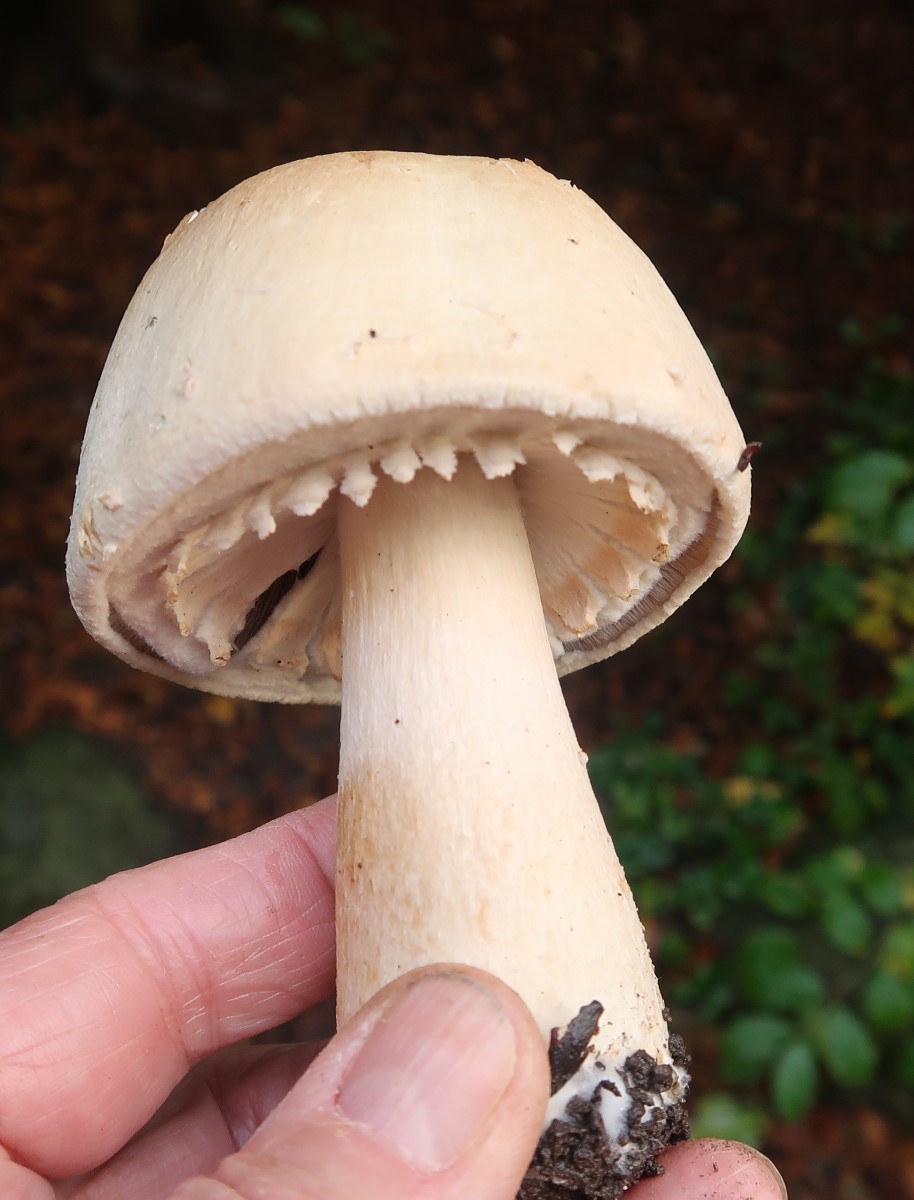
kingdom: Fungi
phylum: Basidiomycota
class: Agaricomycetes
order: Agaricales
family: Agaricaceae
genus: Agaricus
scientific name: Agaricus arvensis
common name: ager-champignon
